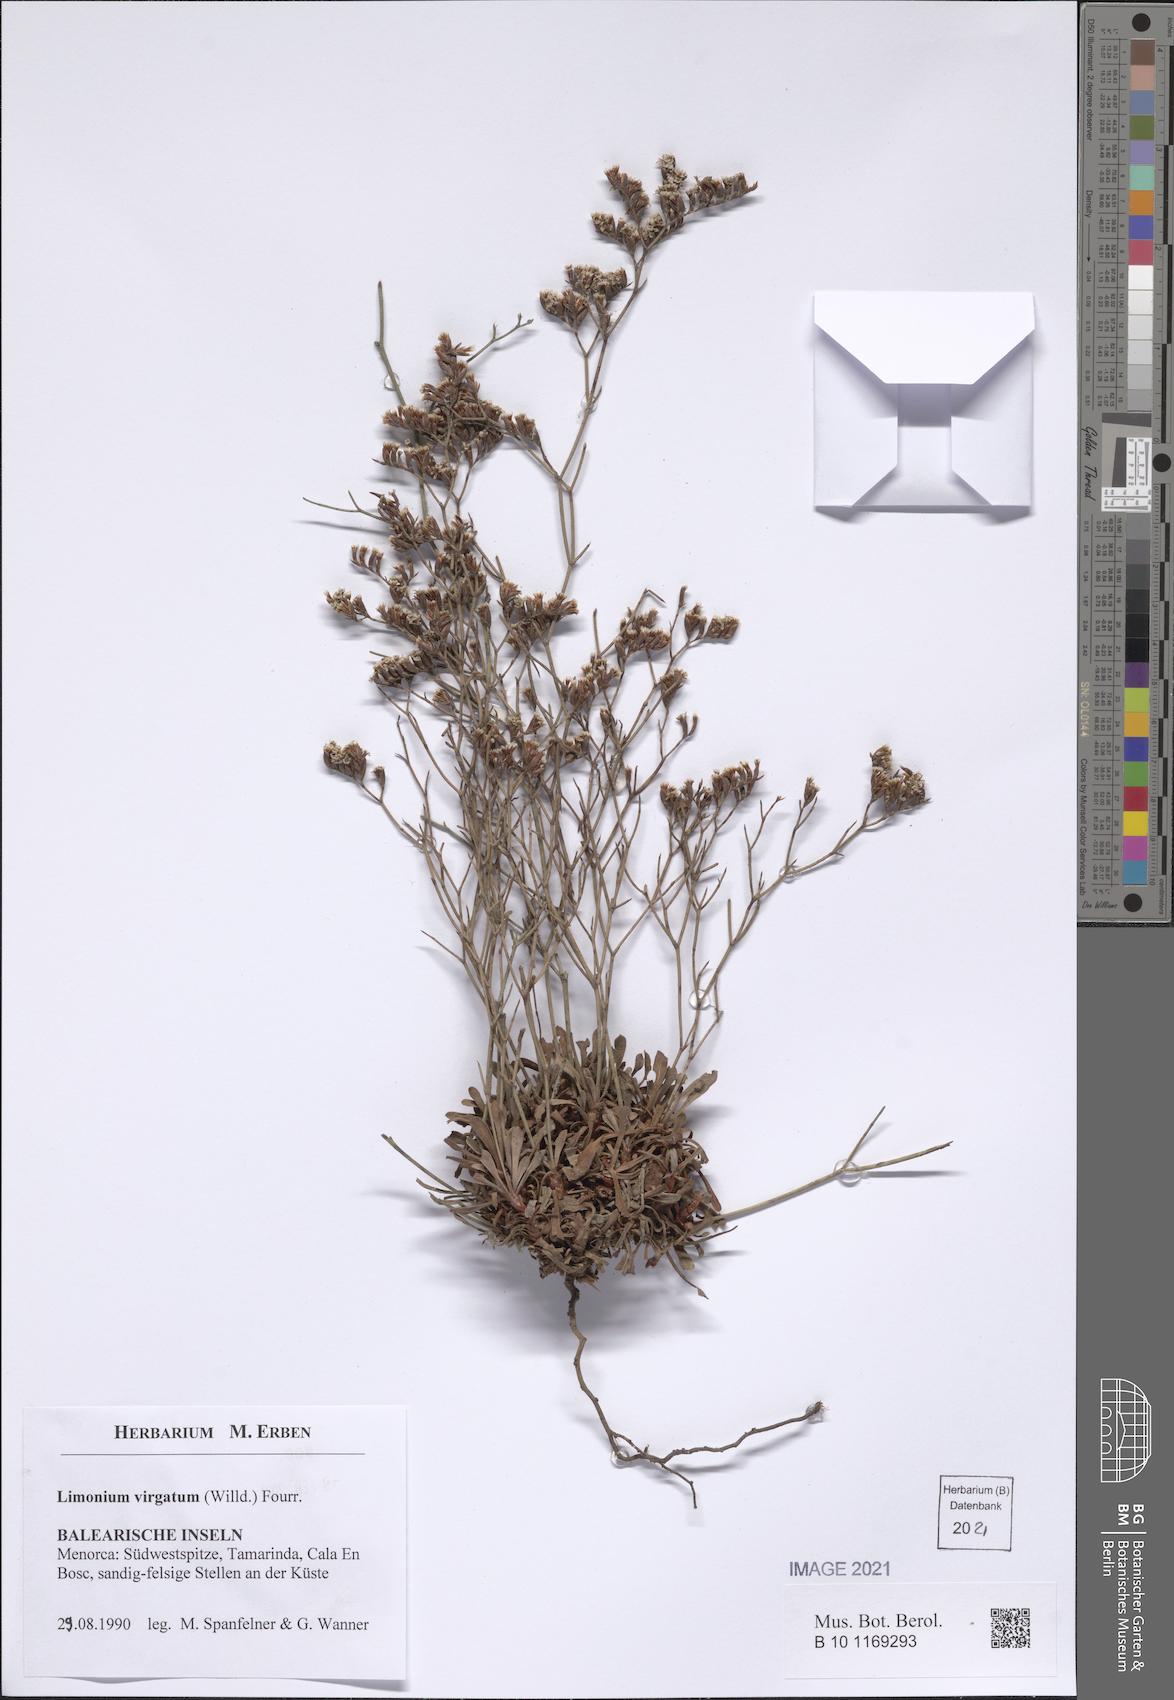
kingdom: Plantae
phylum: Tracheophyta
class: Magnoliopsida
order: Caryophyllales
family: Plumbaginaceae
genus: Limonium
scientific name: Limonium virgatum
